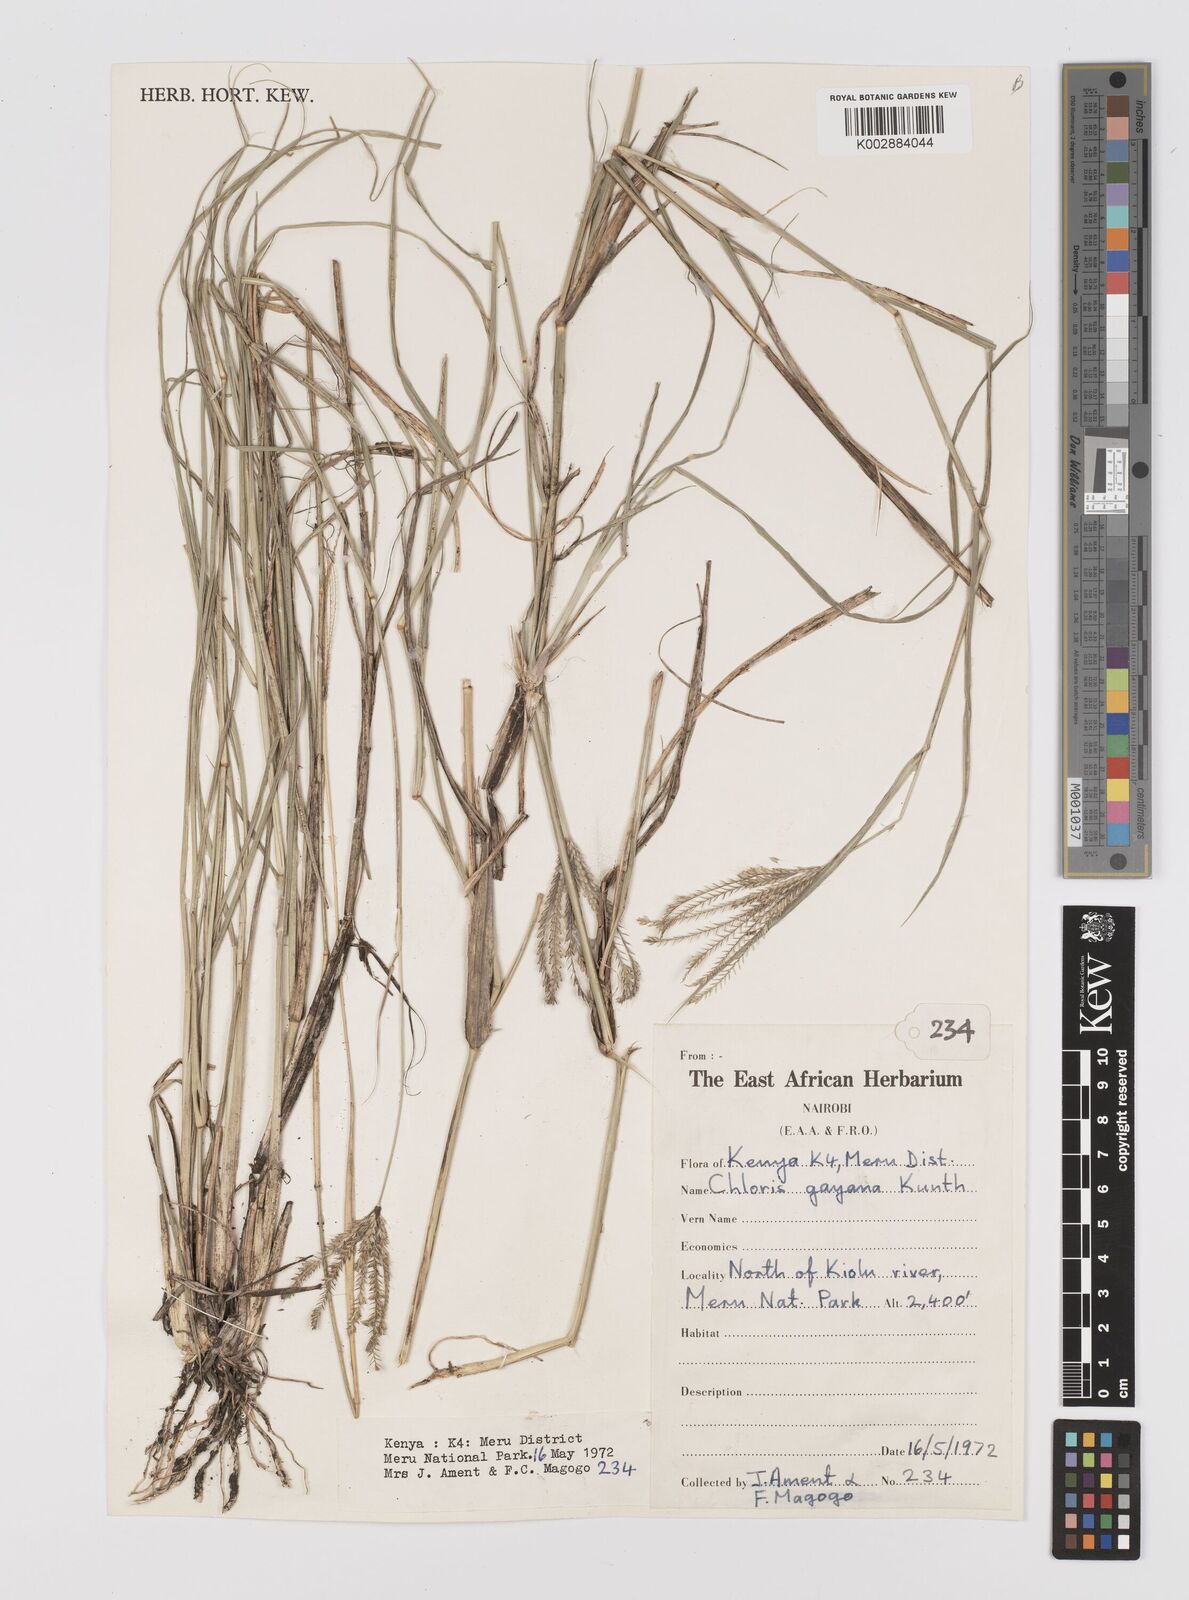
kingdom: Plantae
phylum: Tracheophyta
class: Liliopsida
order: Poales
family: Poaceae
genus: Chloris
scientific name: Chloris gayana
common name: Rhodes grass
